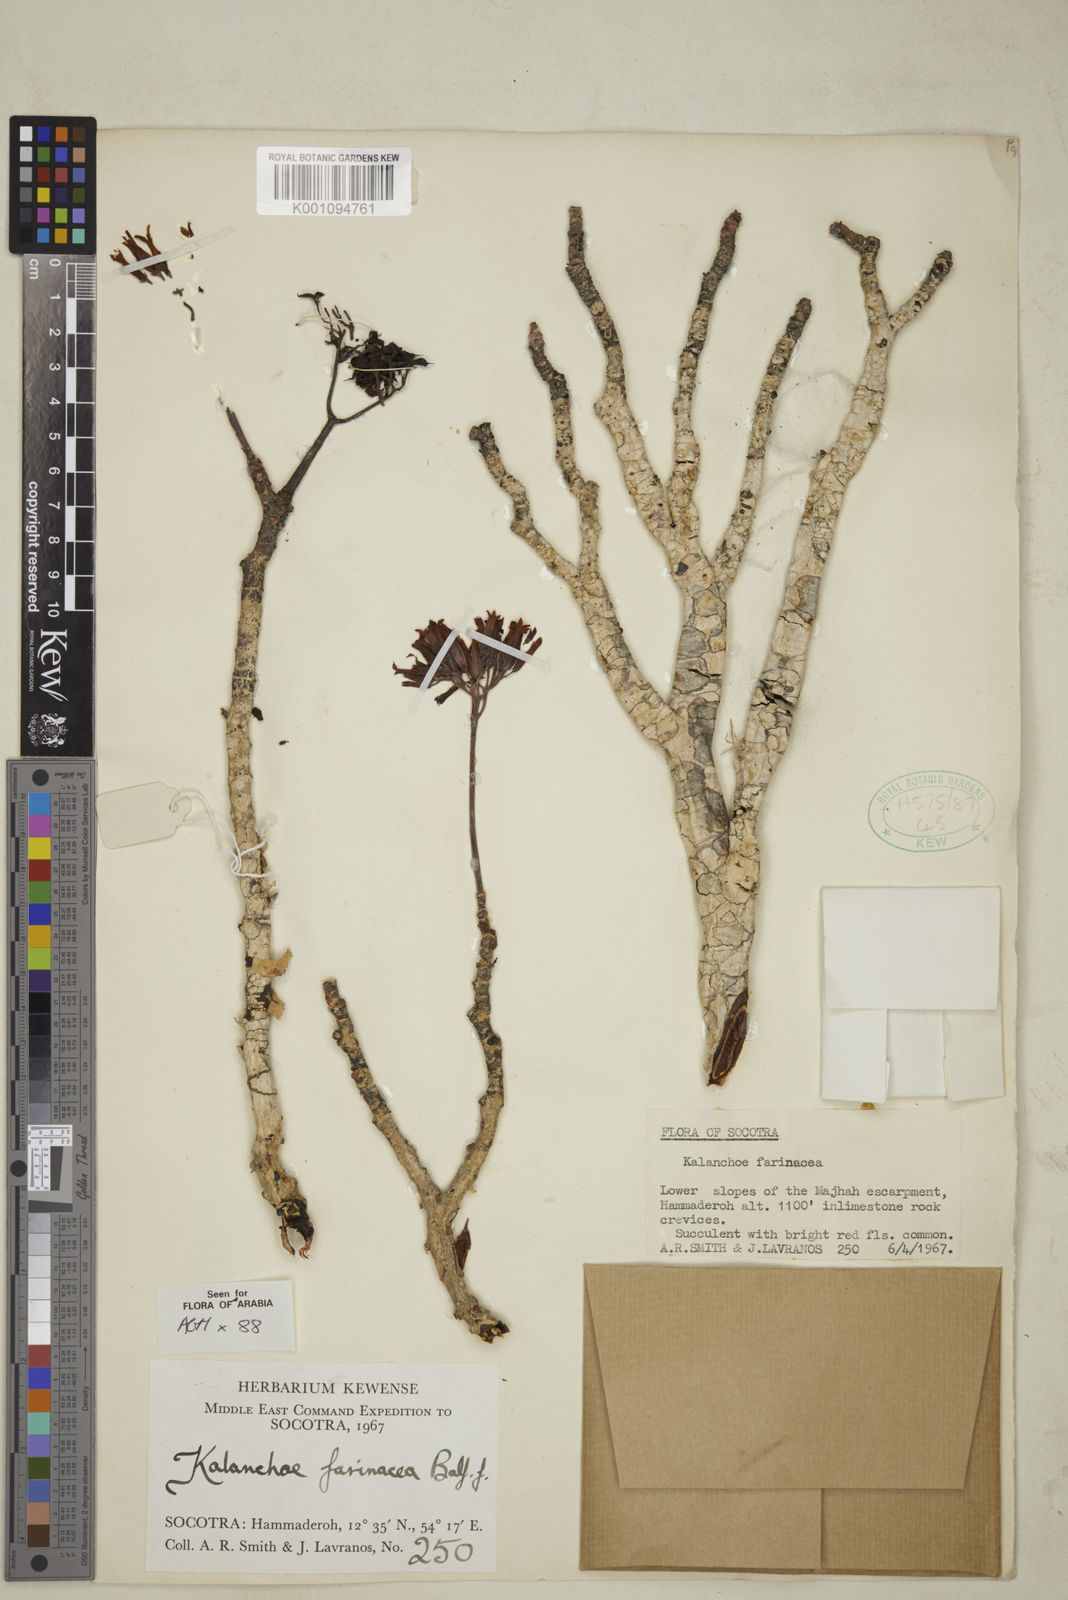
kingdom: Plantae
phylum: Tracheophyta
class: Magnoliopsida
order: Saxifragales
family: Crassulaceae
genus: Kalanchoe
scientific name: Kalanchoe farinacea
